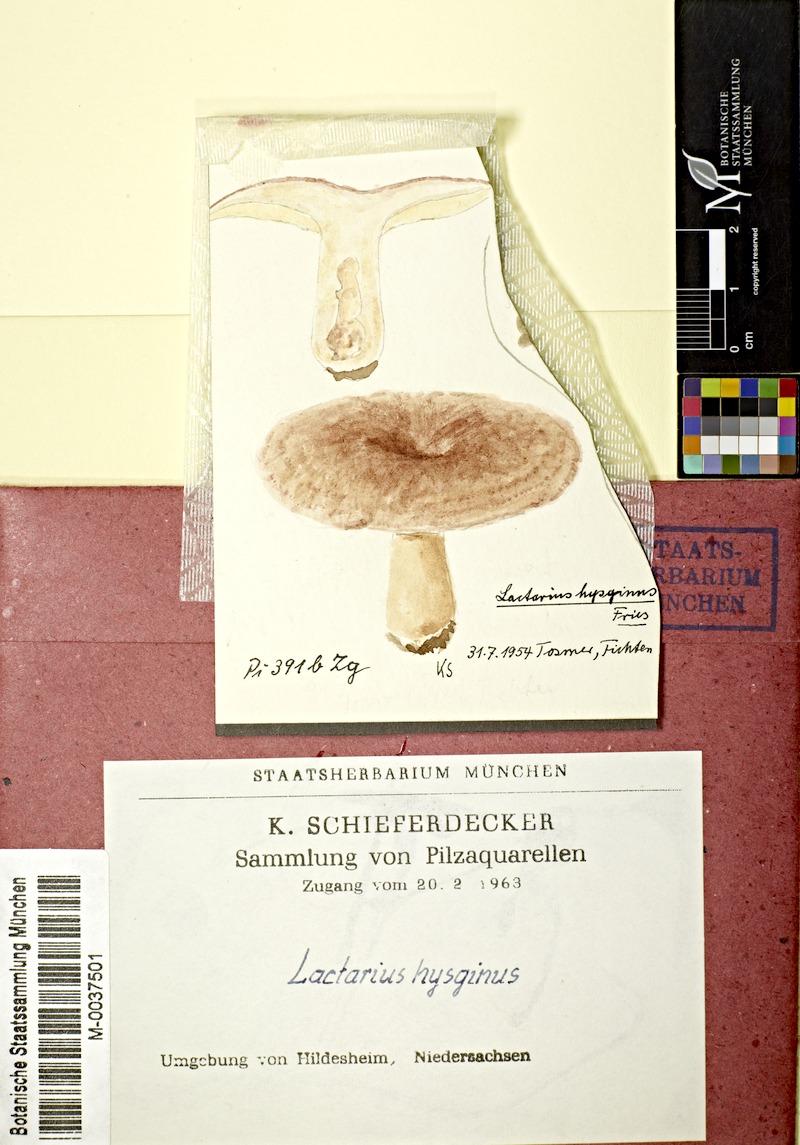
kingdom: Fungi
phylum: Basidiomycota
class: Agaricomycetes
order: Russulales
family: Russulaceae
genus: Lactarius
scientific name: Lactarius hysginus
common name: Dyed milkcap
